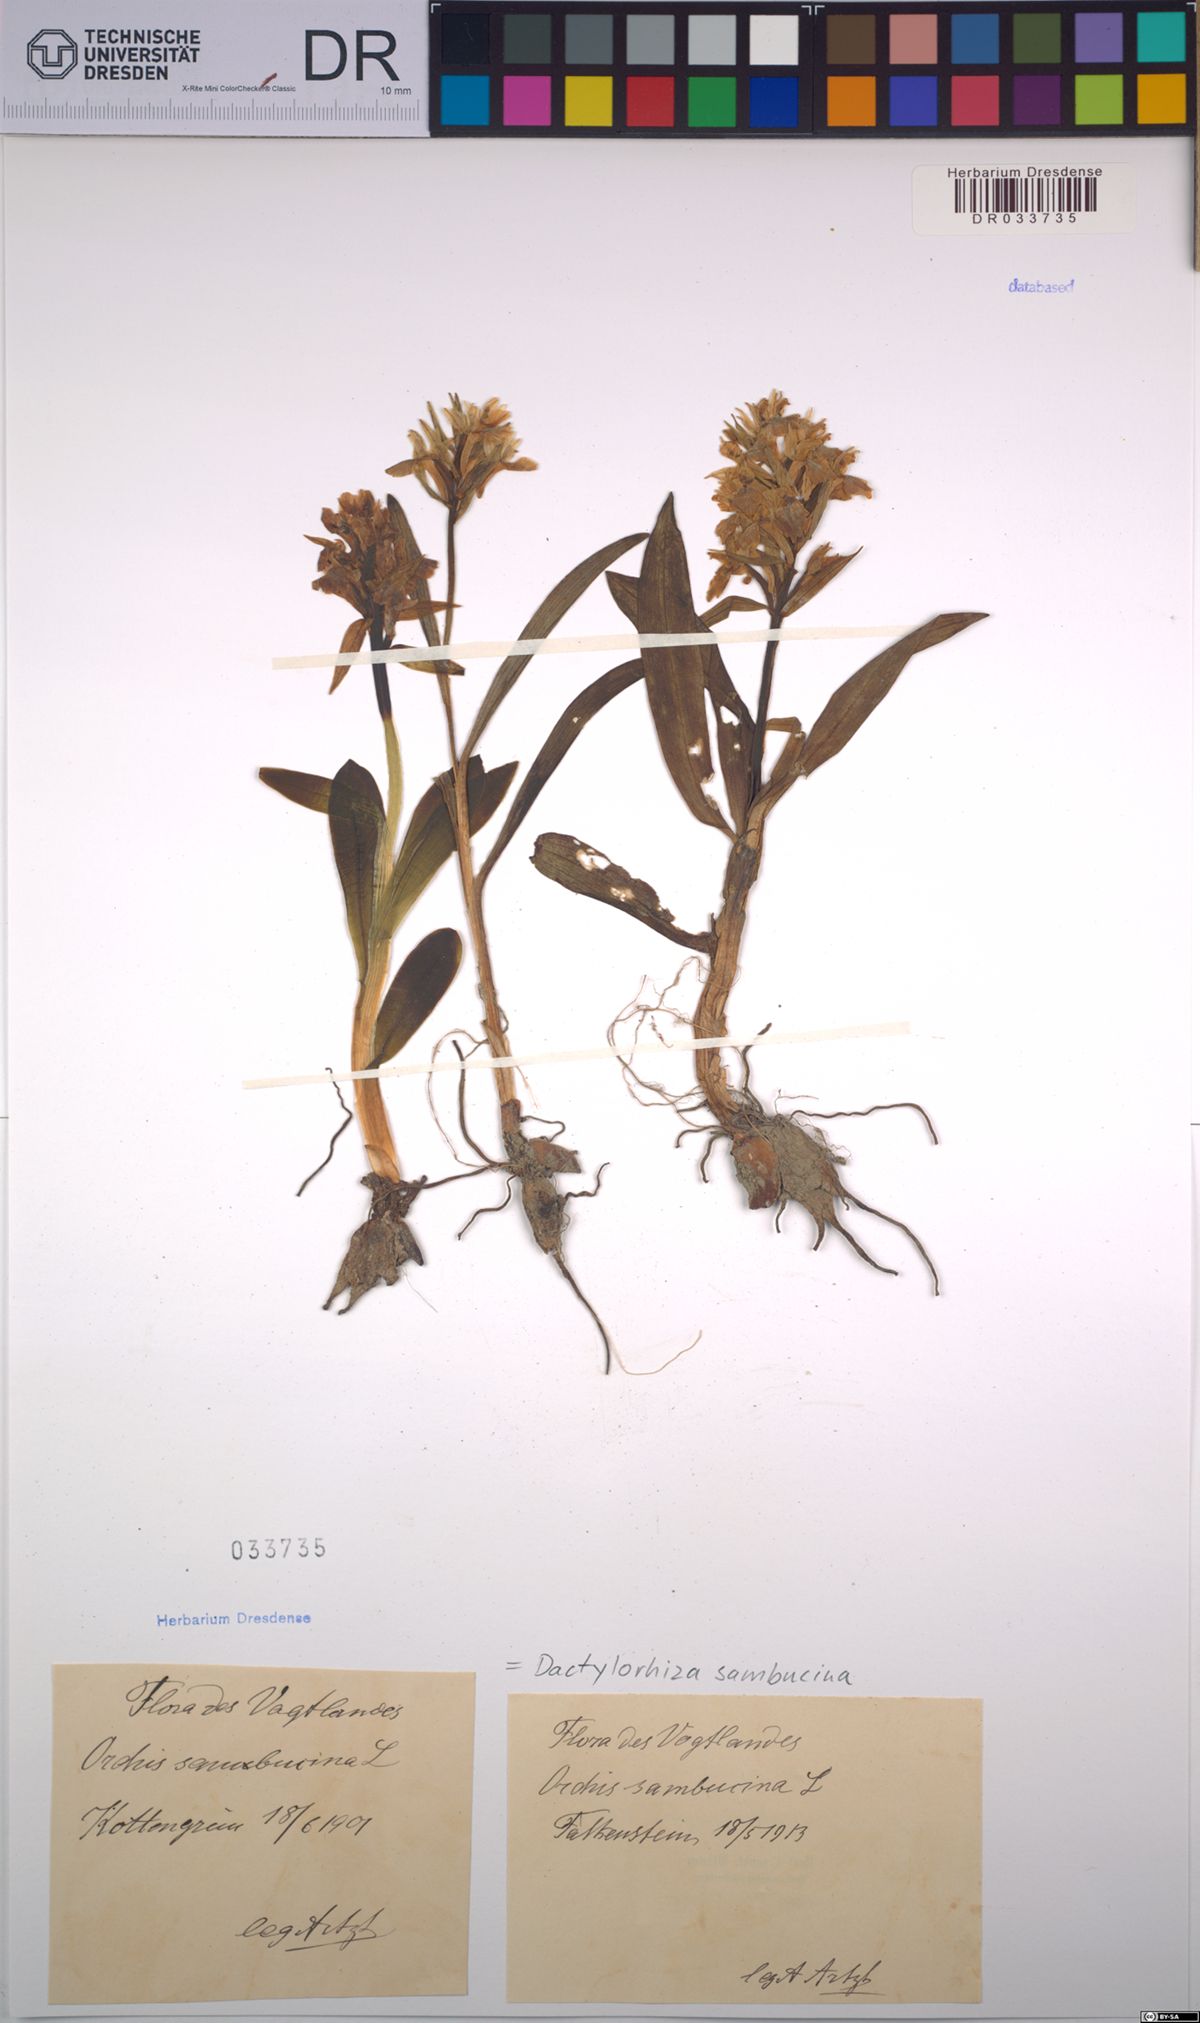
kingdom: Plantae
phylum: Tracheophyta
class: Liliopsida
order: Asparagales
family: Orchidaceae
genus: Dactylorhiza
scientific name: Dactylorhiza sambucina
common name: Elder-flowered orchid
